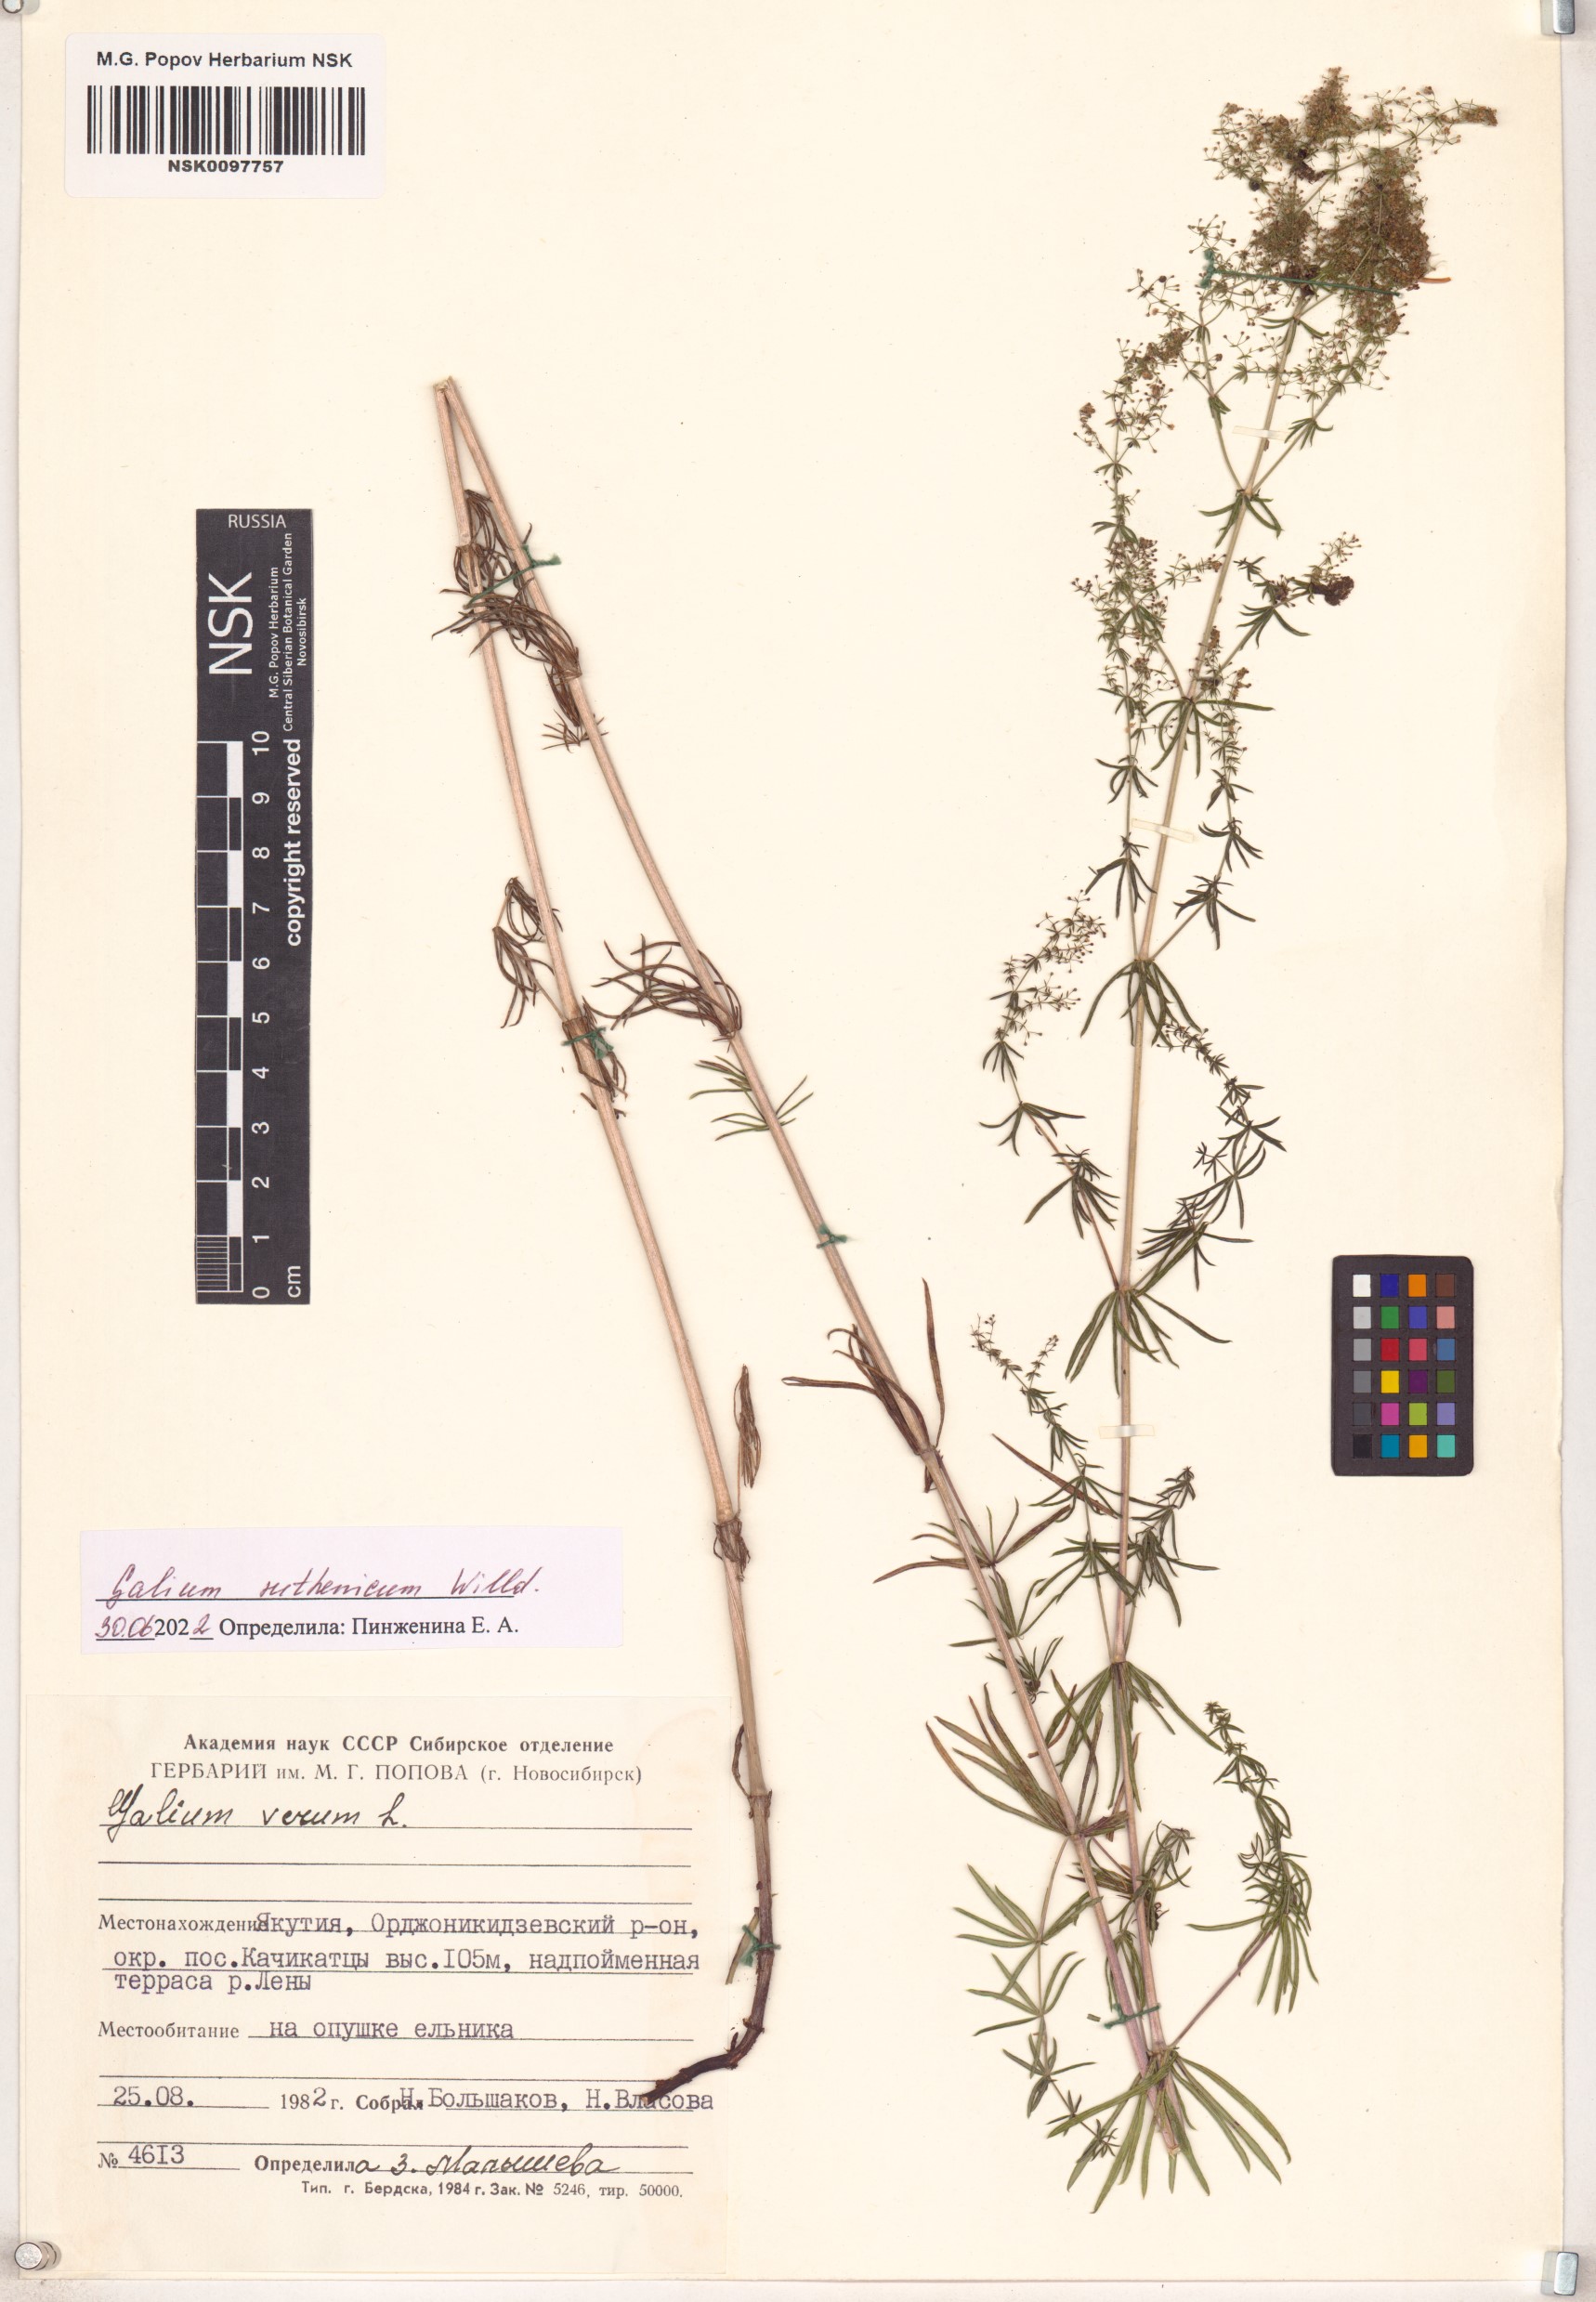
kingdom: Plantae
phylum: Tracheophyta
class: Magnoliopsida
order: Gentianales
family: Rubiaceae
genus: Galium
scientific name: Galium verum
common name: Lady's bedstraw
